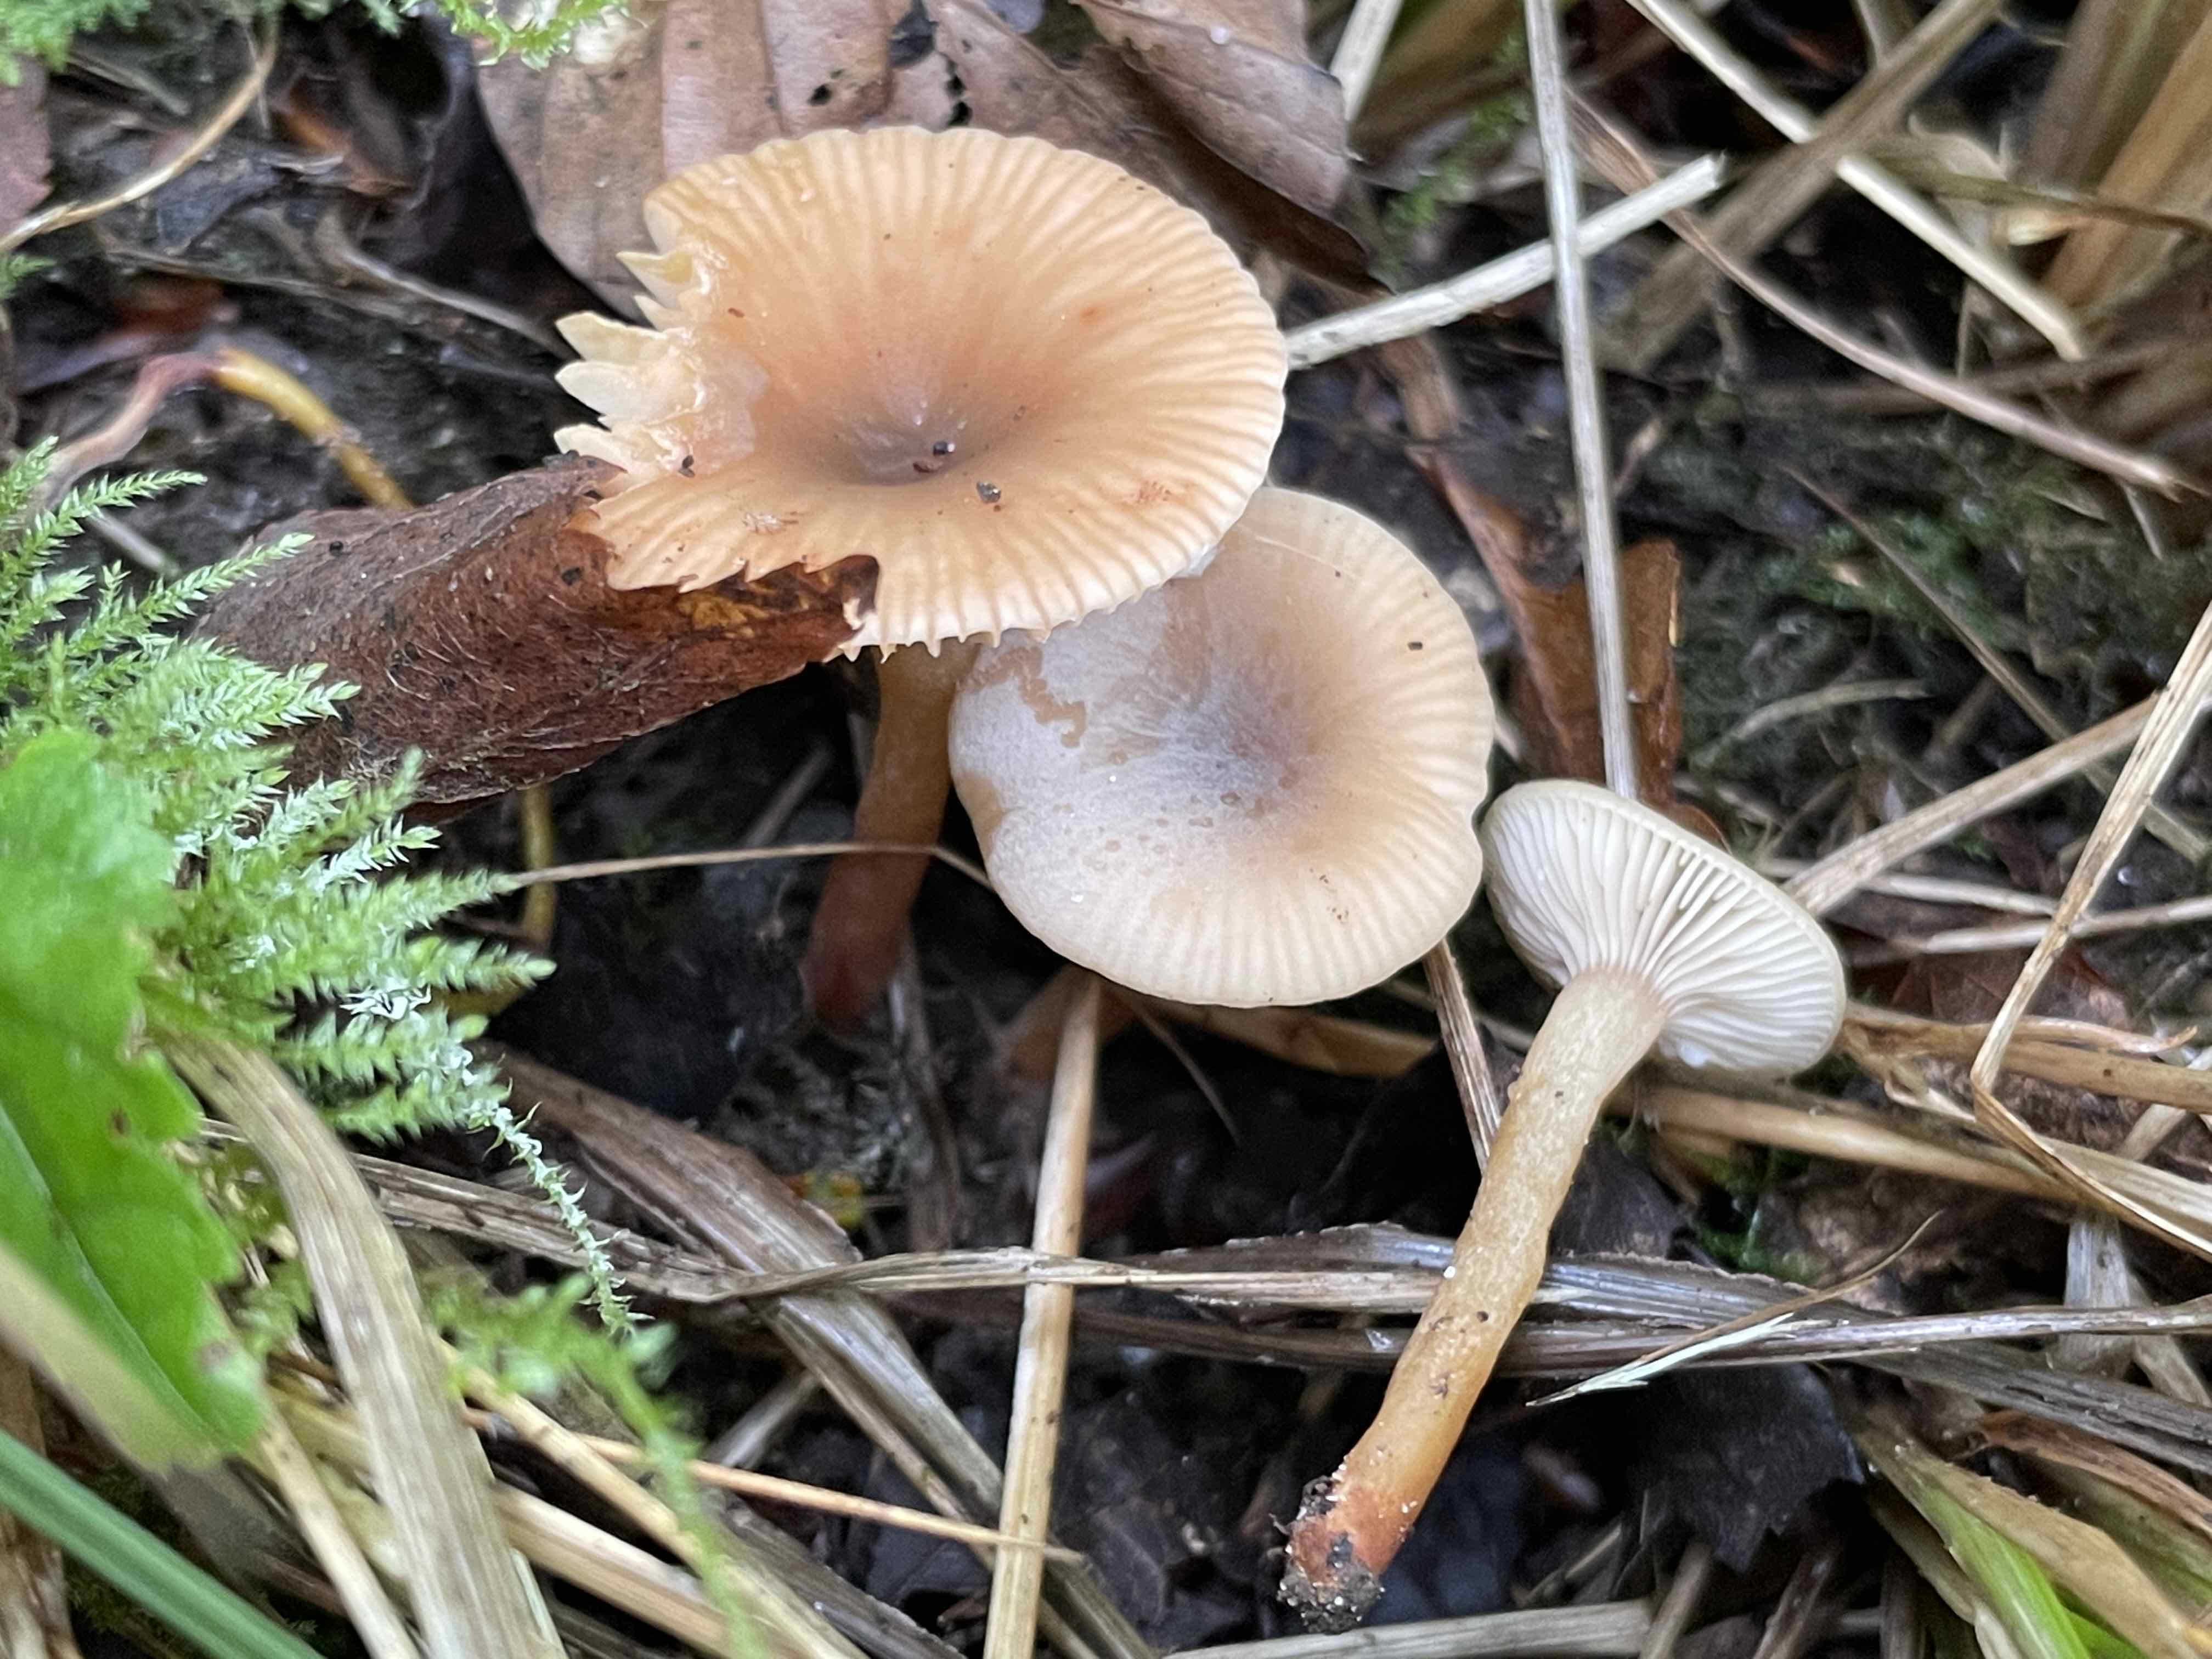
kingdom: Fungi
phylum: Basidiomycota
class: Agaricomycetes
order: Russulales
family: Russulaceae
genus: Lactarius
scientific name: Lactarius cyathuliformis
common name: mørkøjet mælkehat
